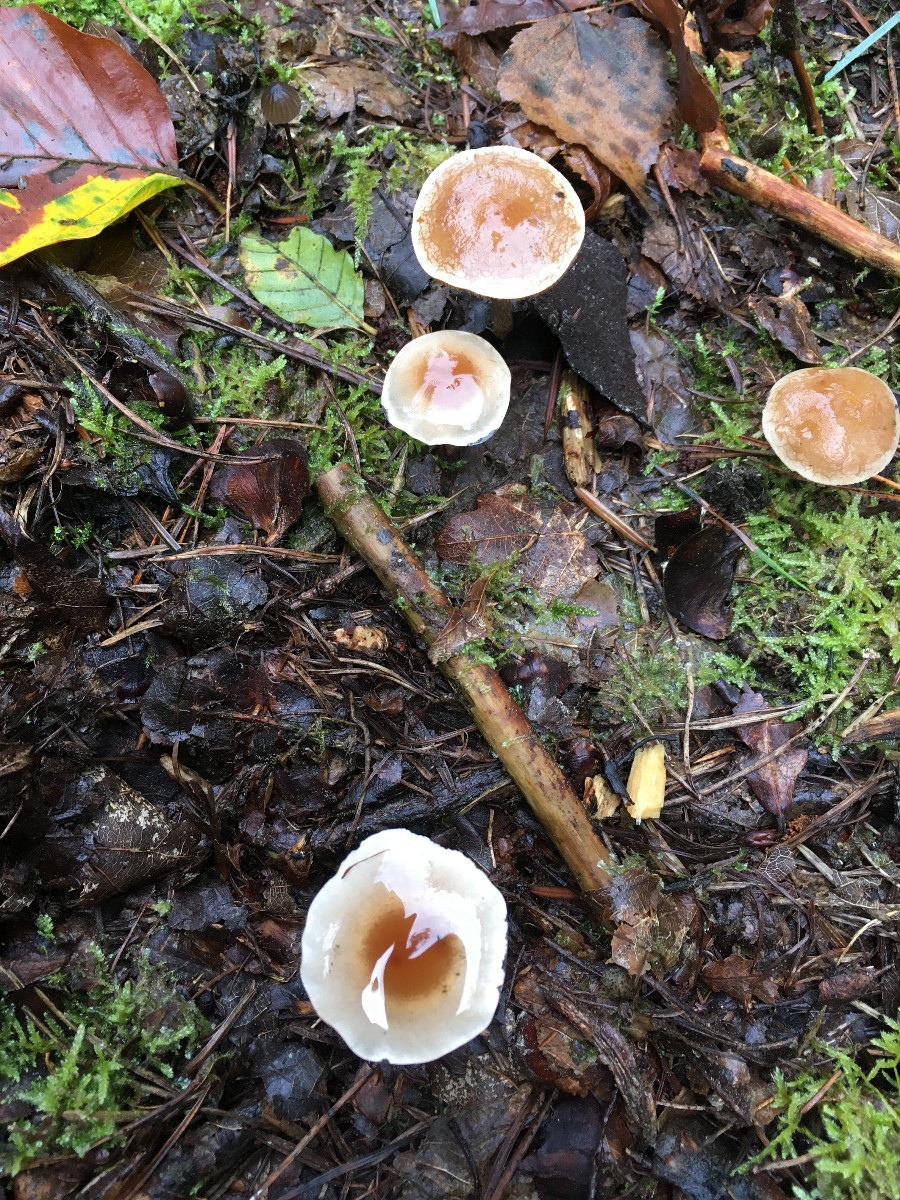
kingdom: Fungi
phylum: Basidiomycota
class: Agaricomycetes
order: Agaricales
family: Hymenogastraceae
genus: Hebeloma
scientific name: Hebeloma mesophaeum
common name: lerbrun tåreblad
